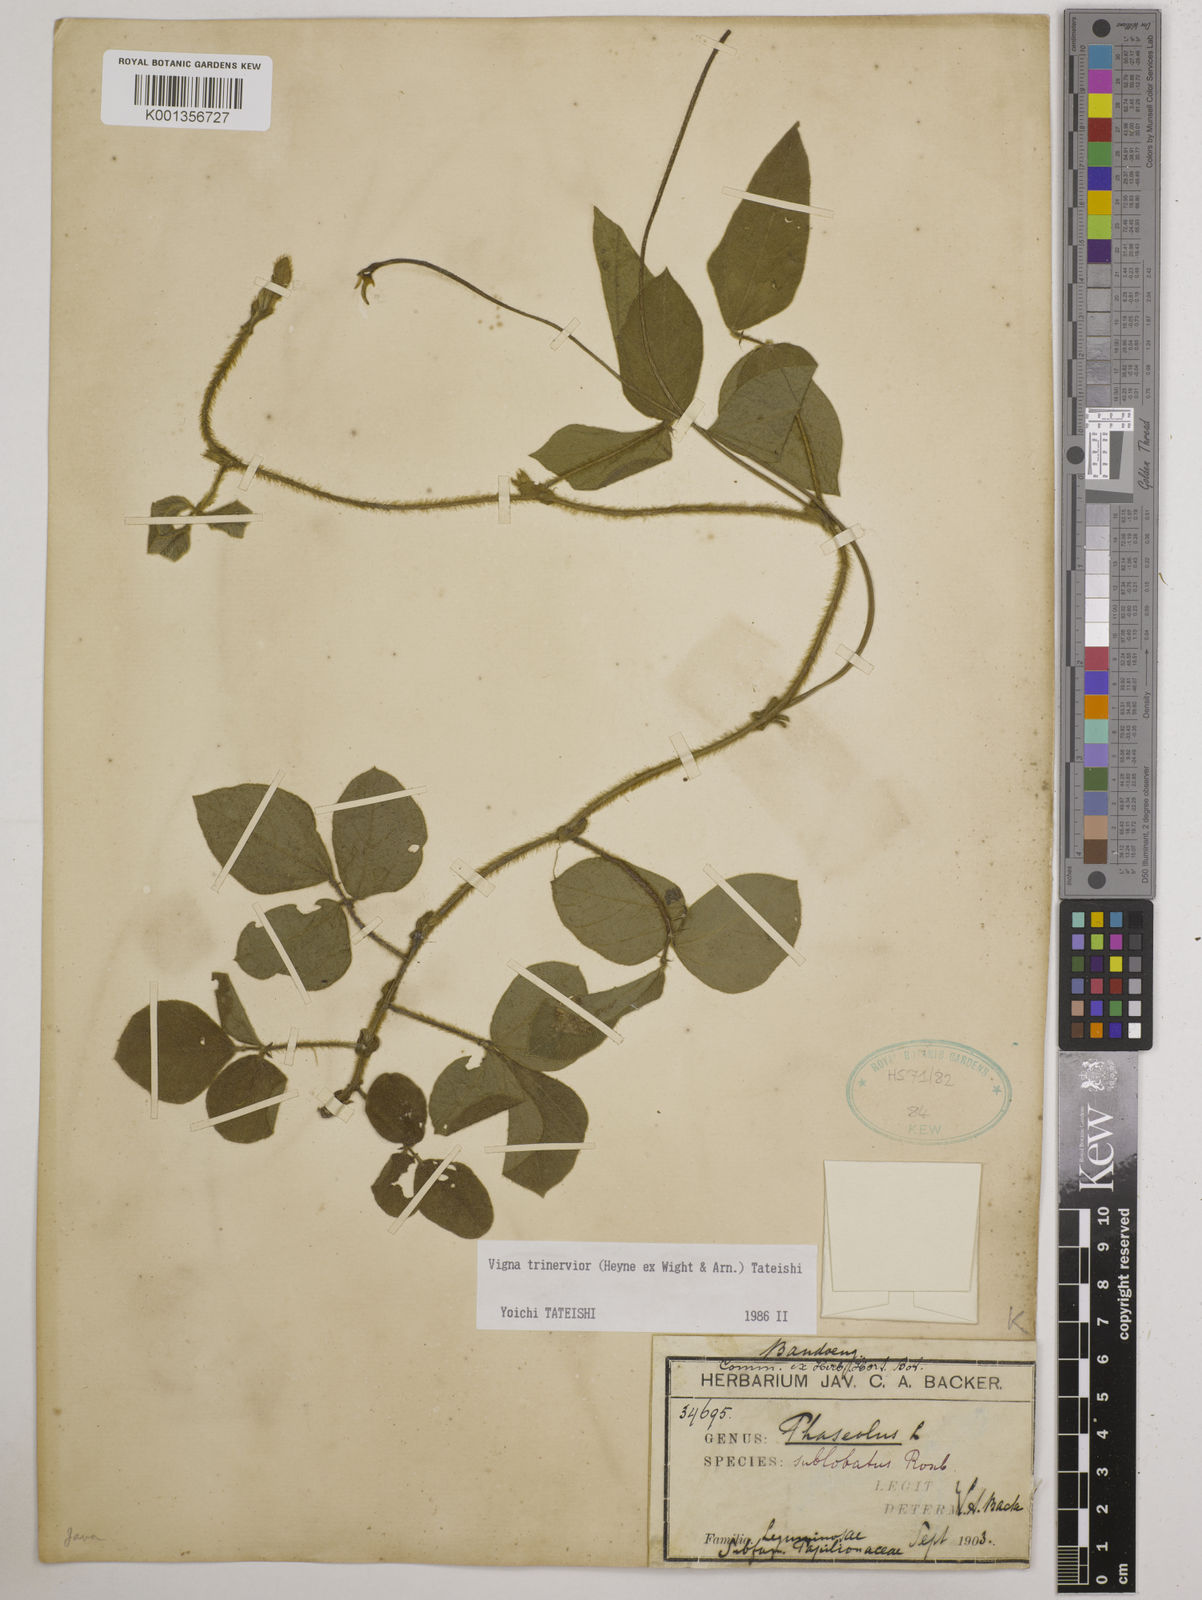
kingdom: Plantae
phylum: Tracheophyta
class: Magnoliopsida
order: Fabales
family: Fabaceae
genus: Vigna
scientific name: Vigna
